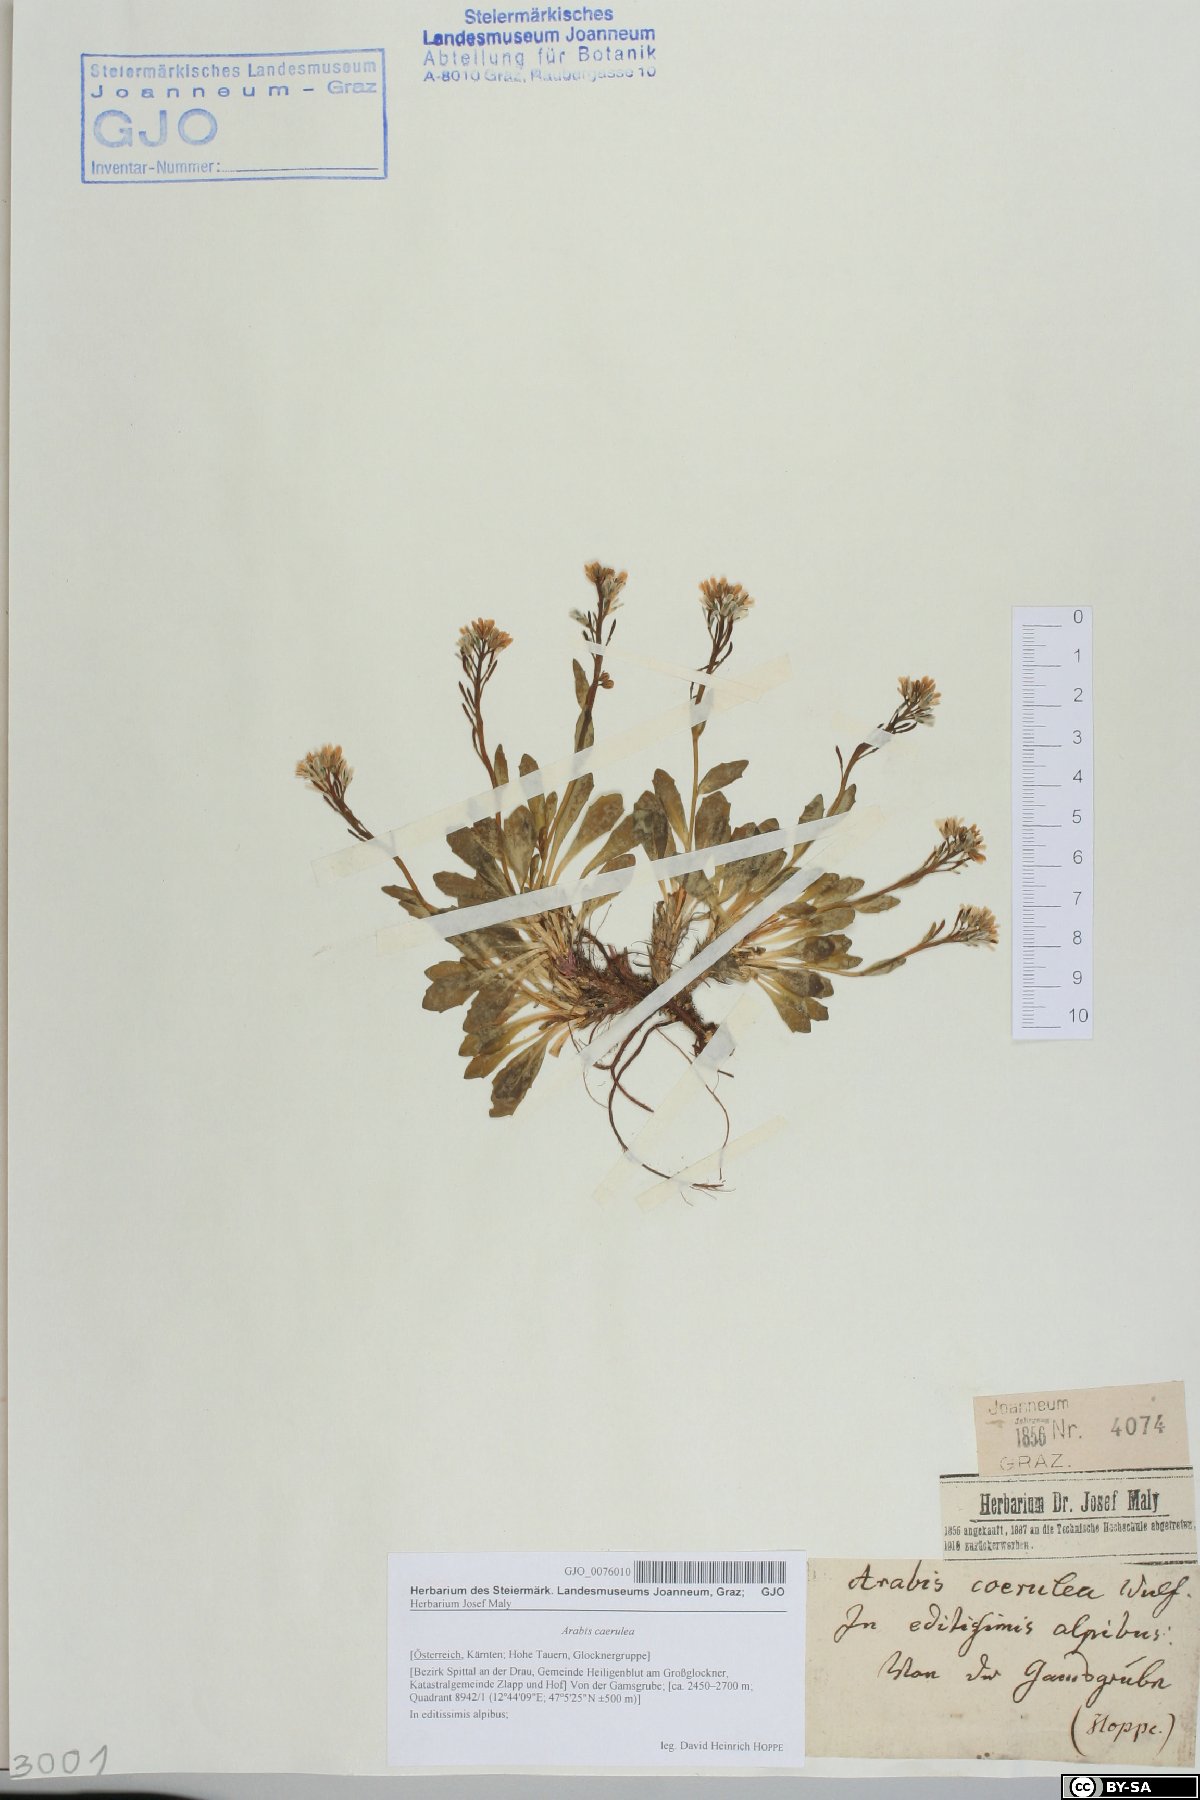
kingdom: Plantae
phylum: Tracheophyta
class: Magnoliopsida
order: Brassicales
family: Brassicaceae
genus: Arabis
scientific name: Arabis caerulea
